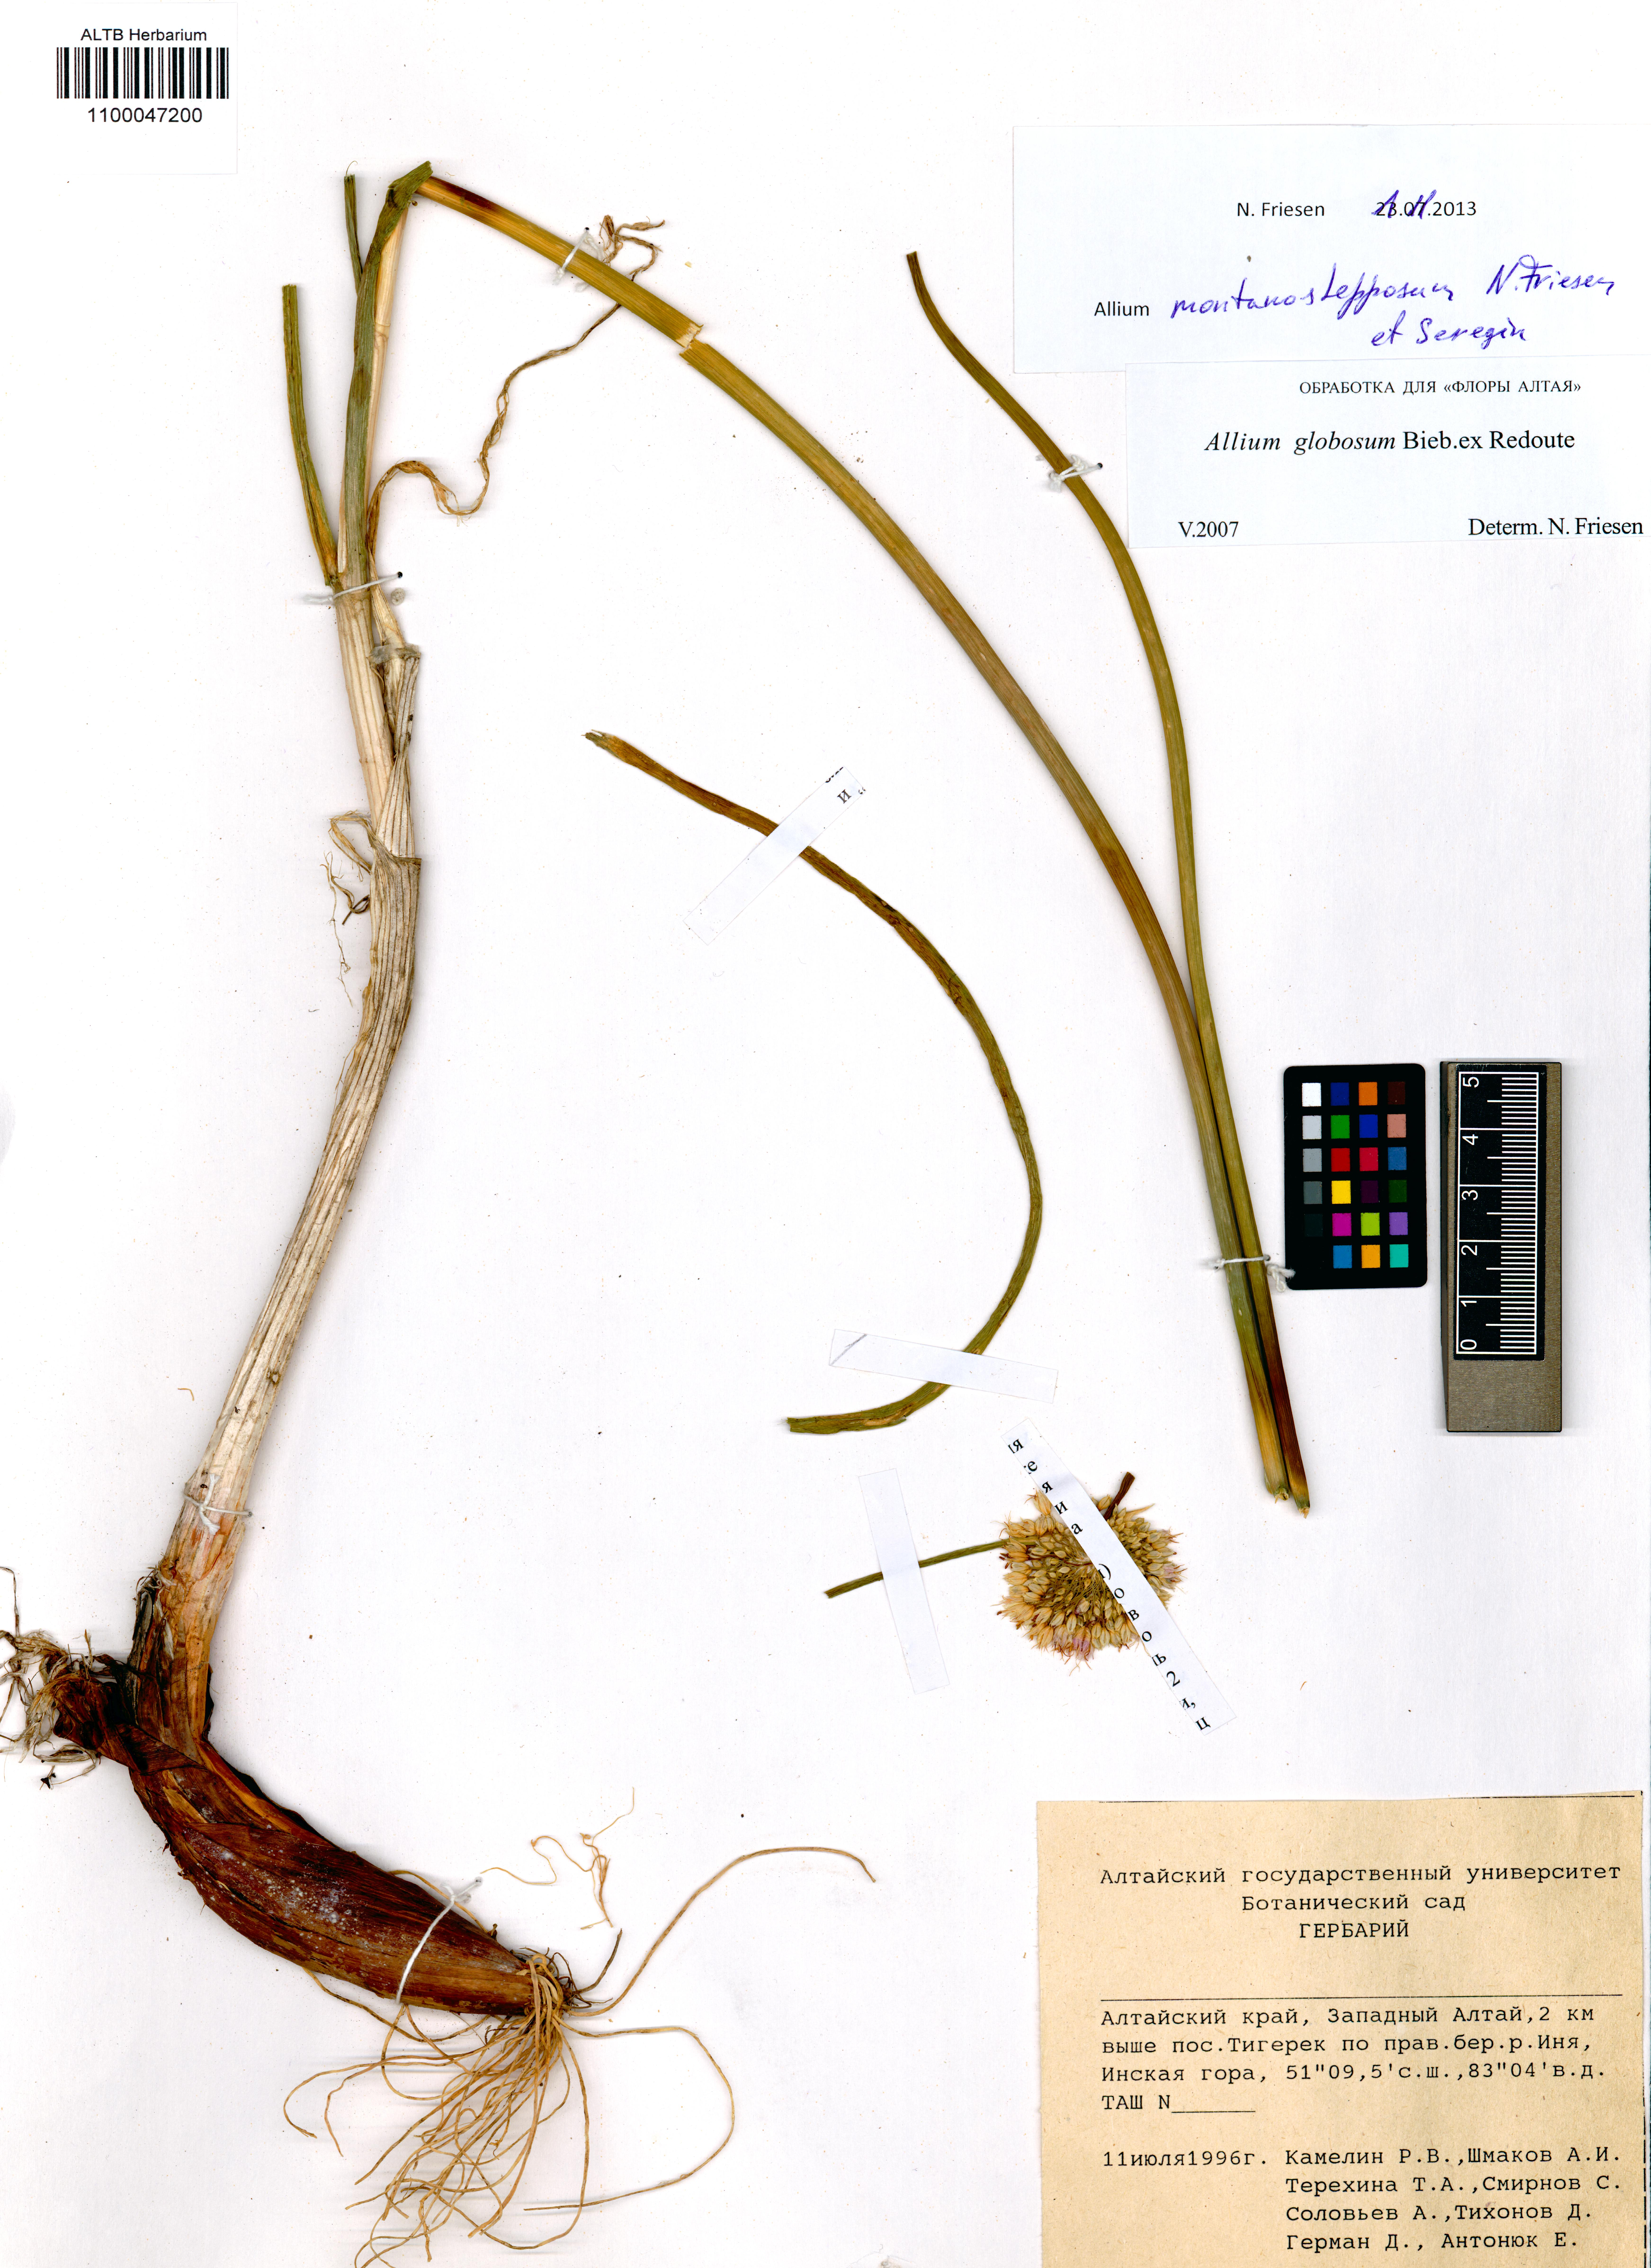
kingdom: Plantae
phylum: Tracheophyta
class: Liliopsida
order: Asparagales
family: Amaryllidaceae
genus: Allium
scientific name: Allium montanostepposum
